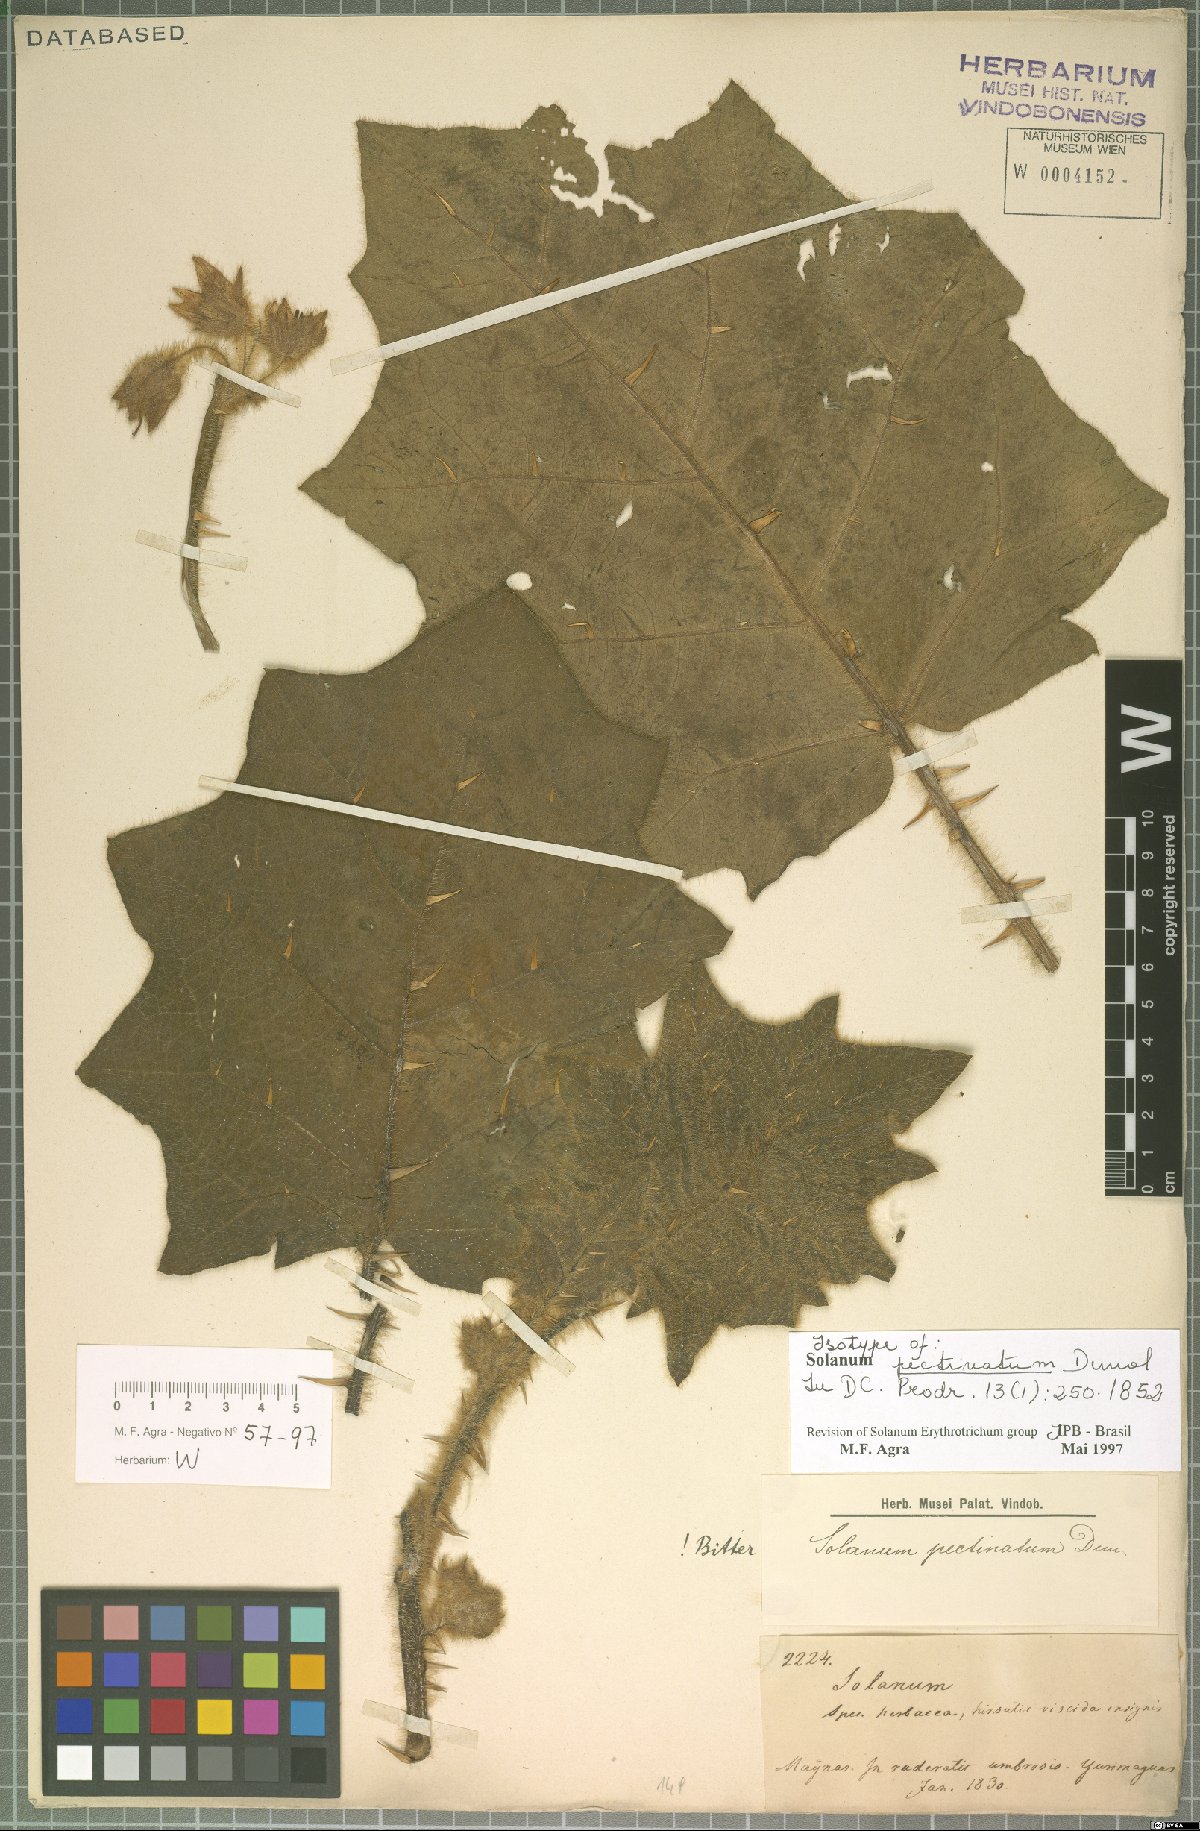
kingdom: Plantae
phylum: Tracheophyta
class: Magnoliopsida
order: Solanales
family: Solanaceae
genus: Solanum
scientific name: Solanum pectinatum
